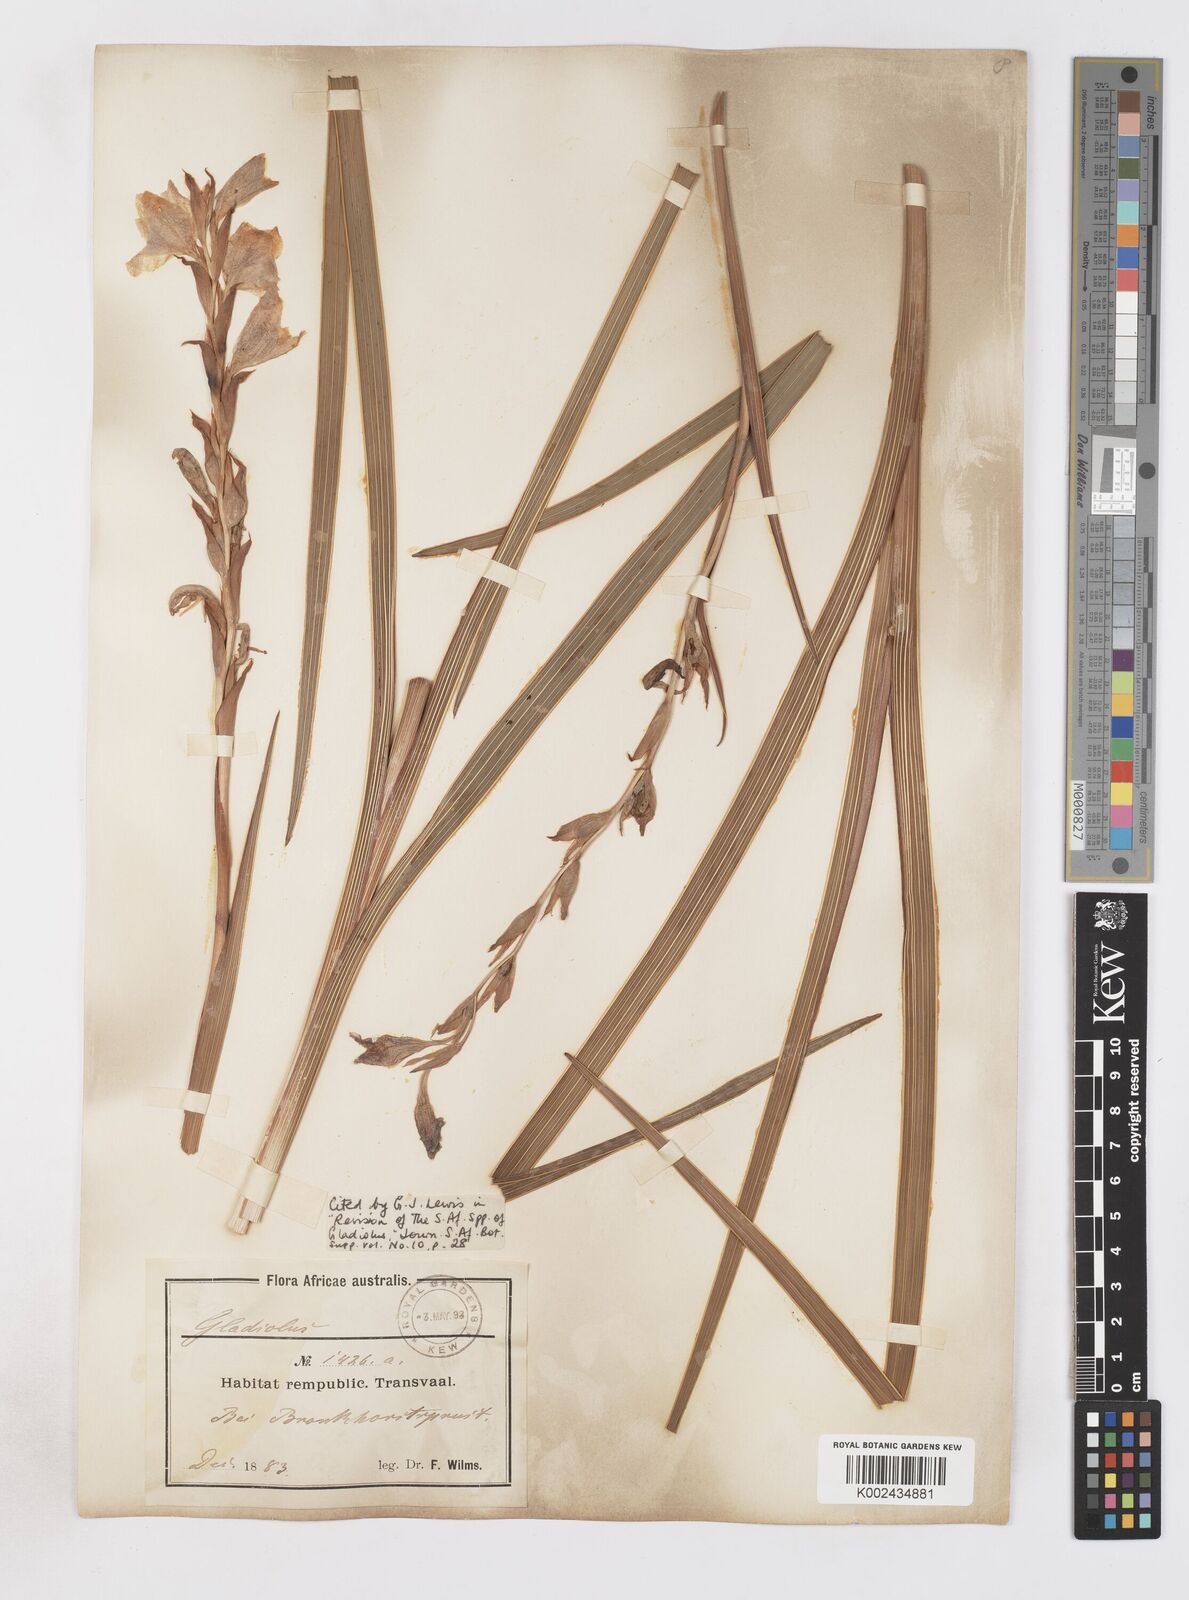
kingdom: Plantae
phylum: Tracheophyta
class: Liliopsida
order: Asparagales
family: Iridaceae
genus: Gladiolus
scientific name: Gladiolus elliotii
